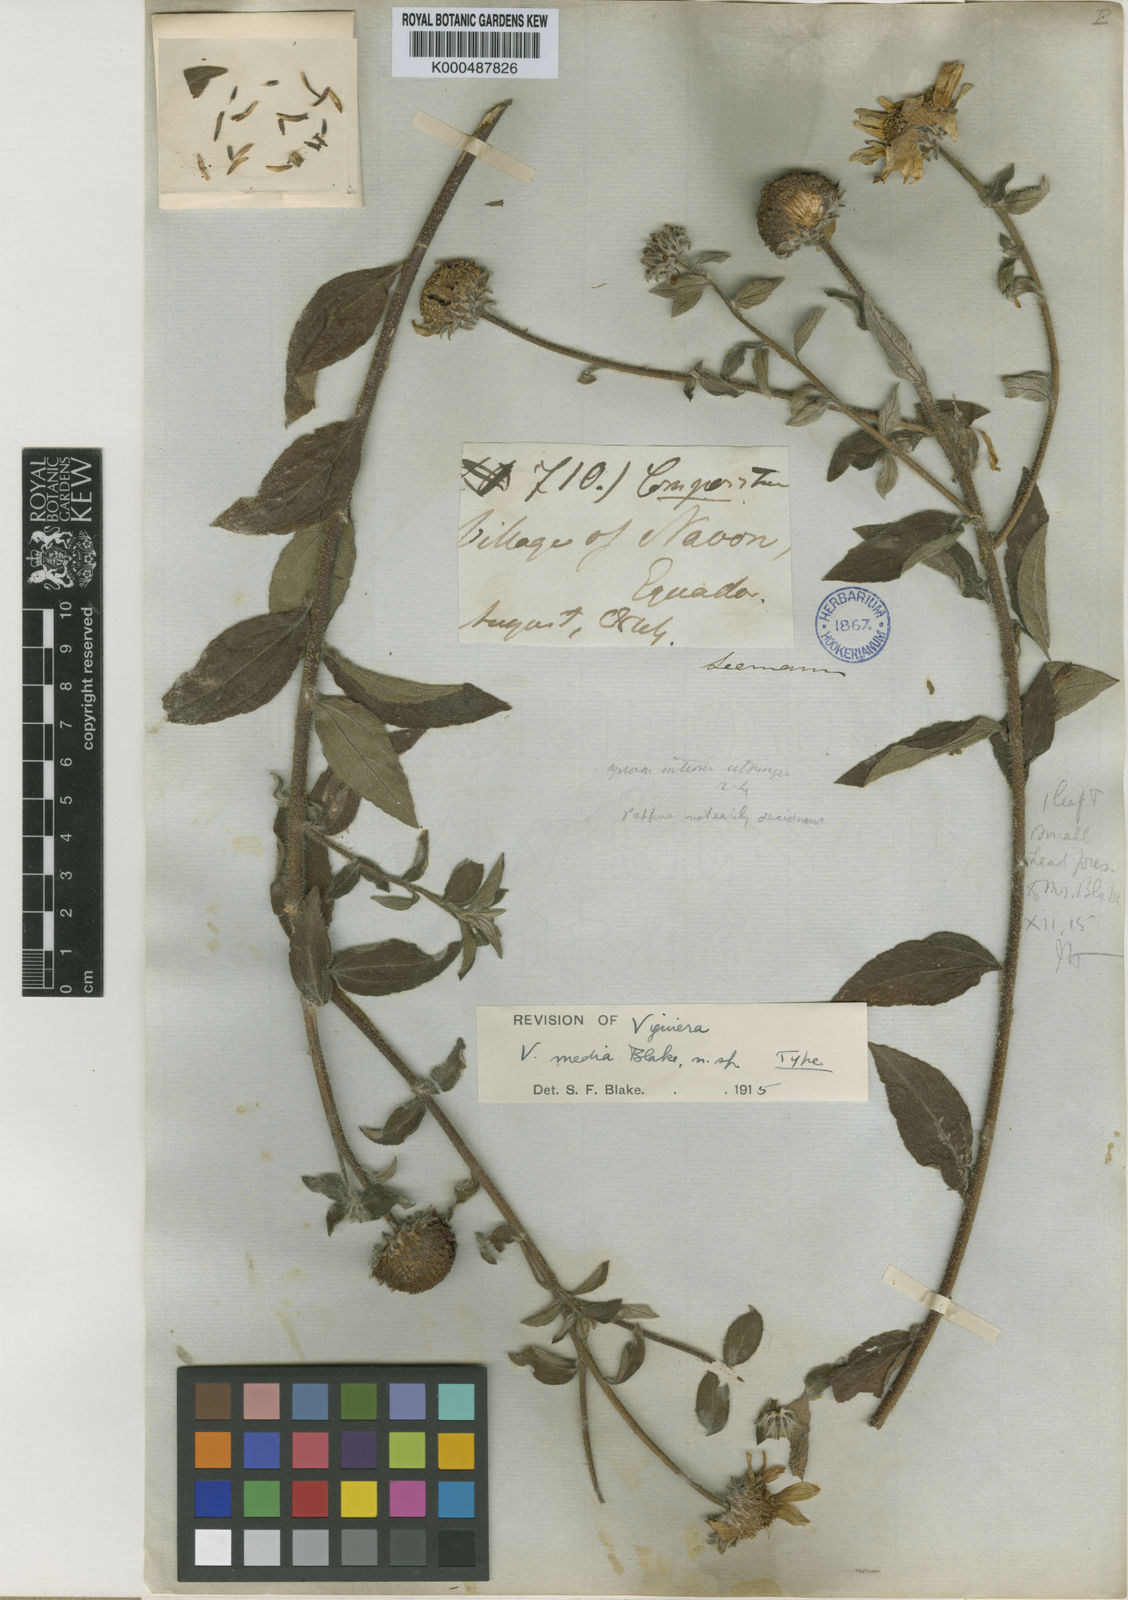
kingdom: Plantae
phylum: Tracheophyta
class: Magnoliopsida
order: Asterales
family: Asteraceae
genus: Aldama
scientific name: Aldama media
